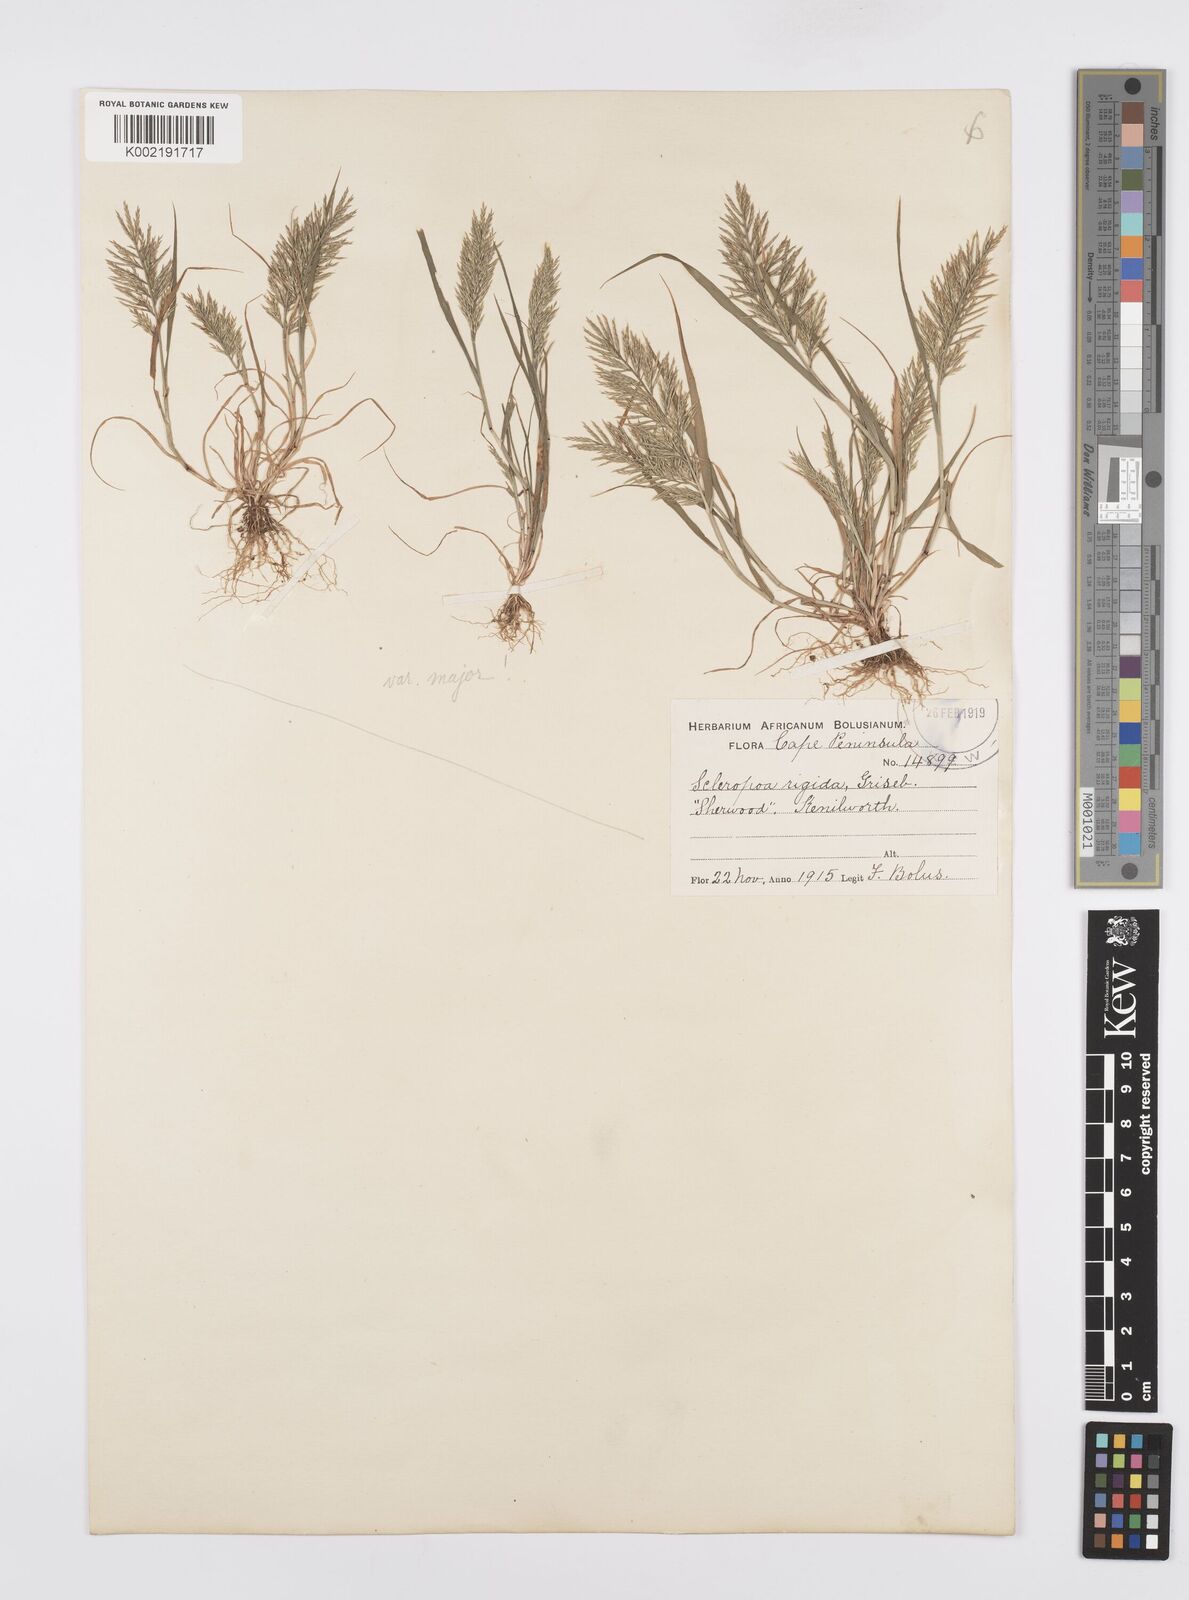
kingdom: Plantae
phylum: Tracheophyta
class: Liliopsida
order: Poales
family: Poaceae
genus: Catapodium
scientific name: Catapodium rigidum
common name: Fern-grass
